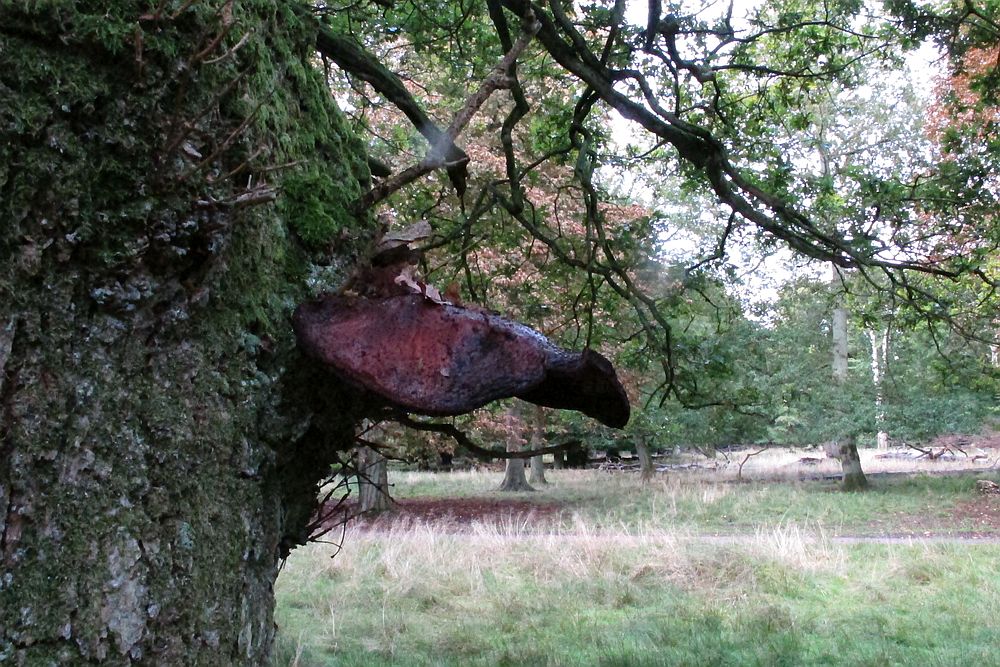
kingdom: Fungi
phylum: Basidiomycota
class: Agaricomycetes
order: Agaricales
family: Fistulinaceae
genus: Fistulina
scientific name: Fistulina hepatica
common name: oksetunge
